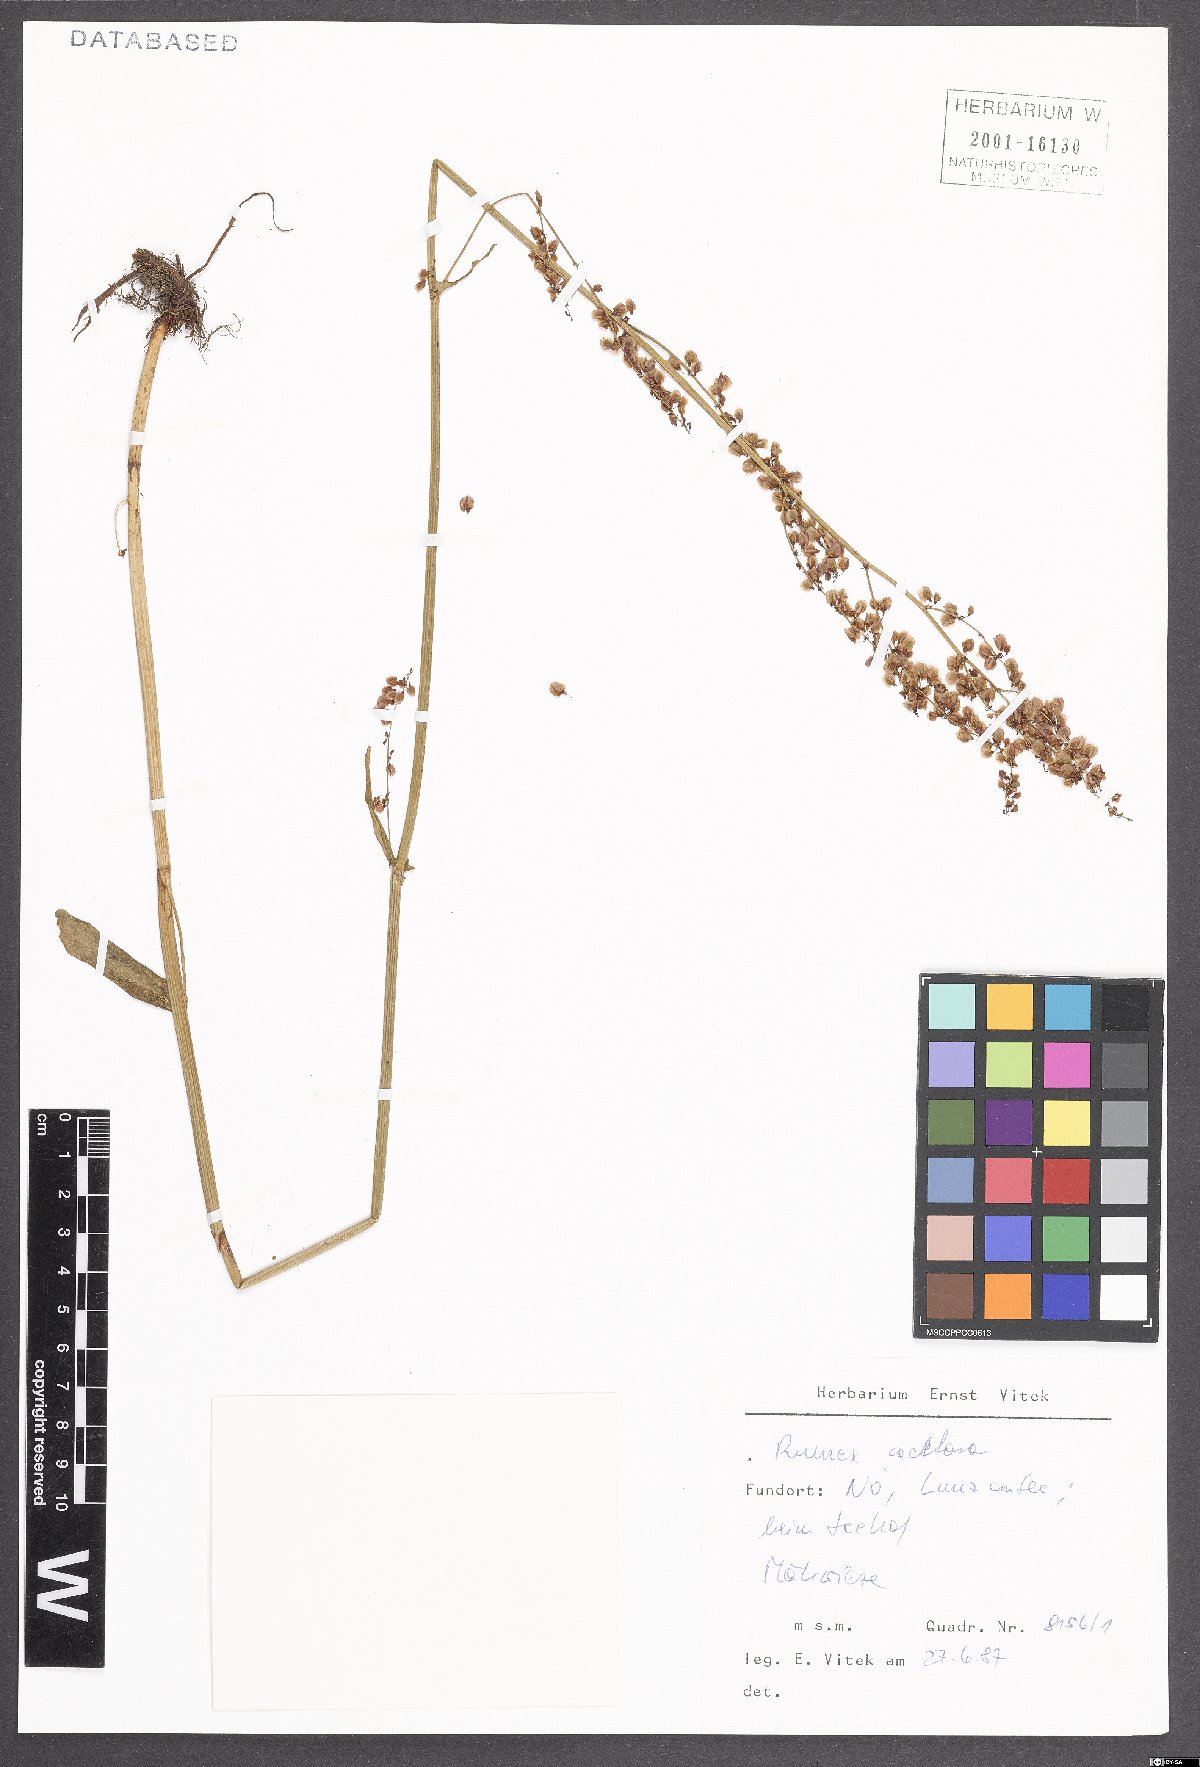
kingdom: Plantae
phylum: Tracheophyta
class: Magnoliopsida
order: Caryophyllales
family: Polygonaceae
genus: Rumex
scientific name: Rumex acetosa
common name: Garden sorrel
